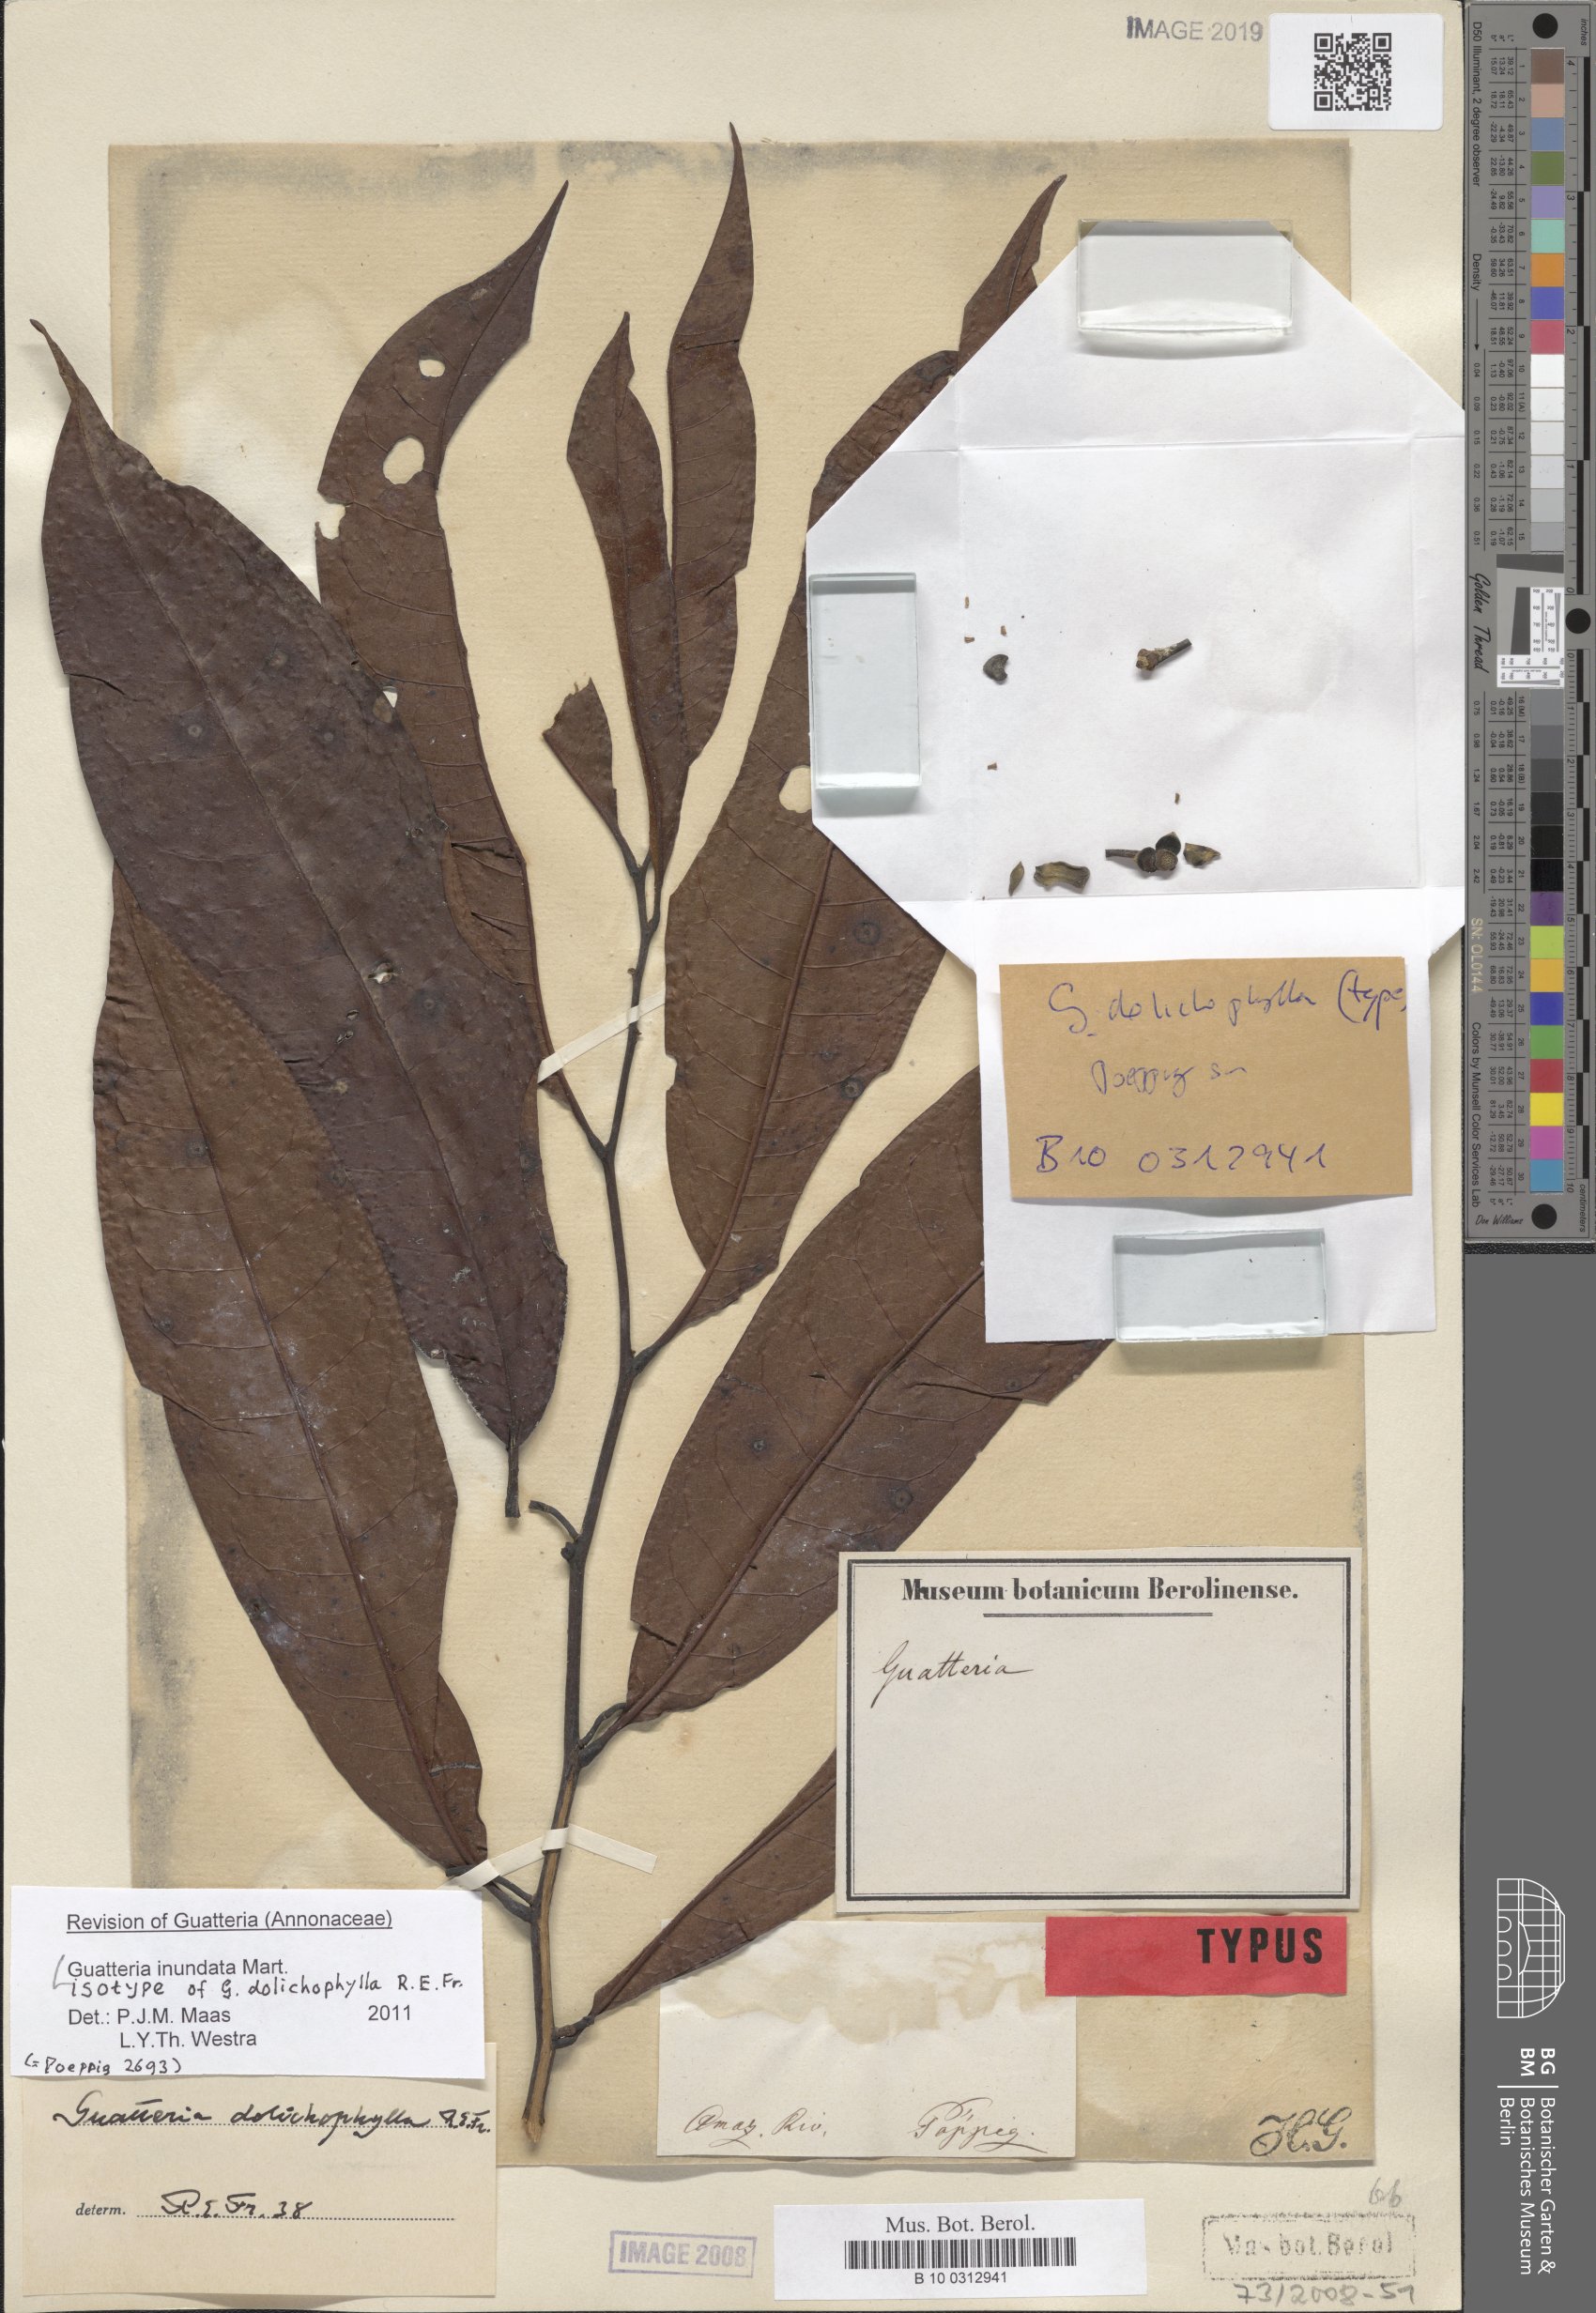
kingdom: Plantae
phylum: Tracheophyta
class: Magnoliopsida
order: Magnoliales
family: Annonaceae
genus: Guatteria
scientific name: Guatteria dolichophylla
